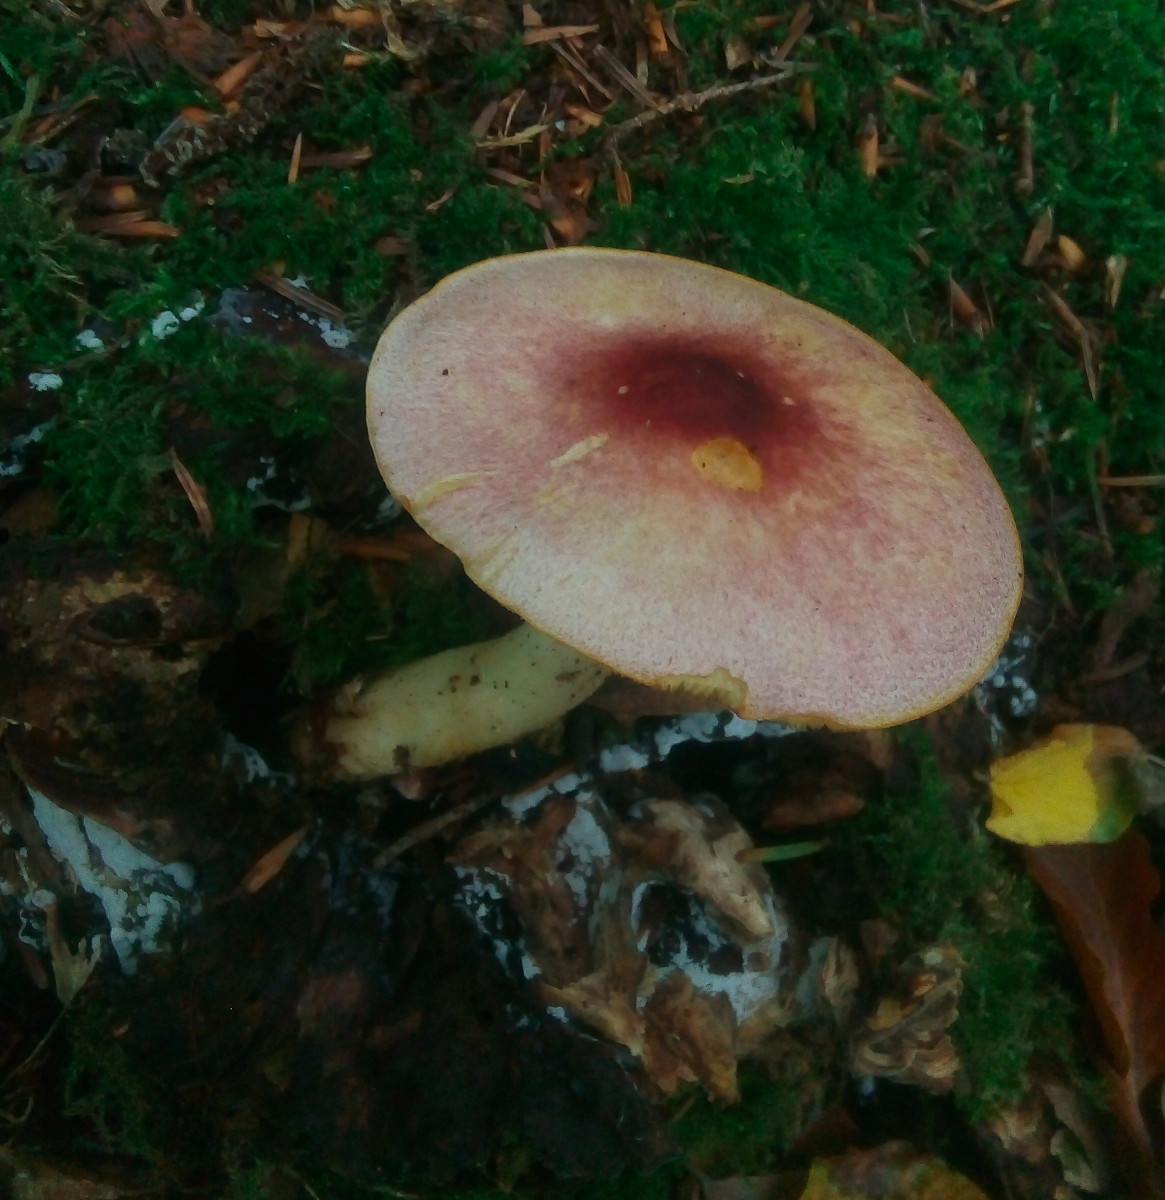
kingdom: Fungi
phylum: Basidiomycota
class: Agaricomycetes
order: Agaricales
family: Tricholomataceae
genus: Tricholomopsis
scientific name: Tricholomopsis rutilans
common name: purpur-væbnerhat
